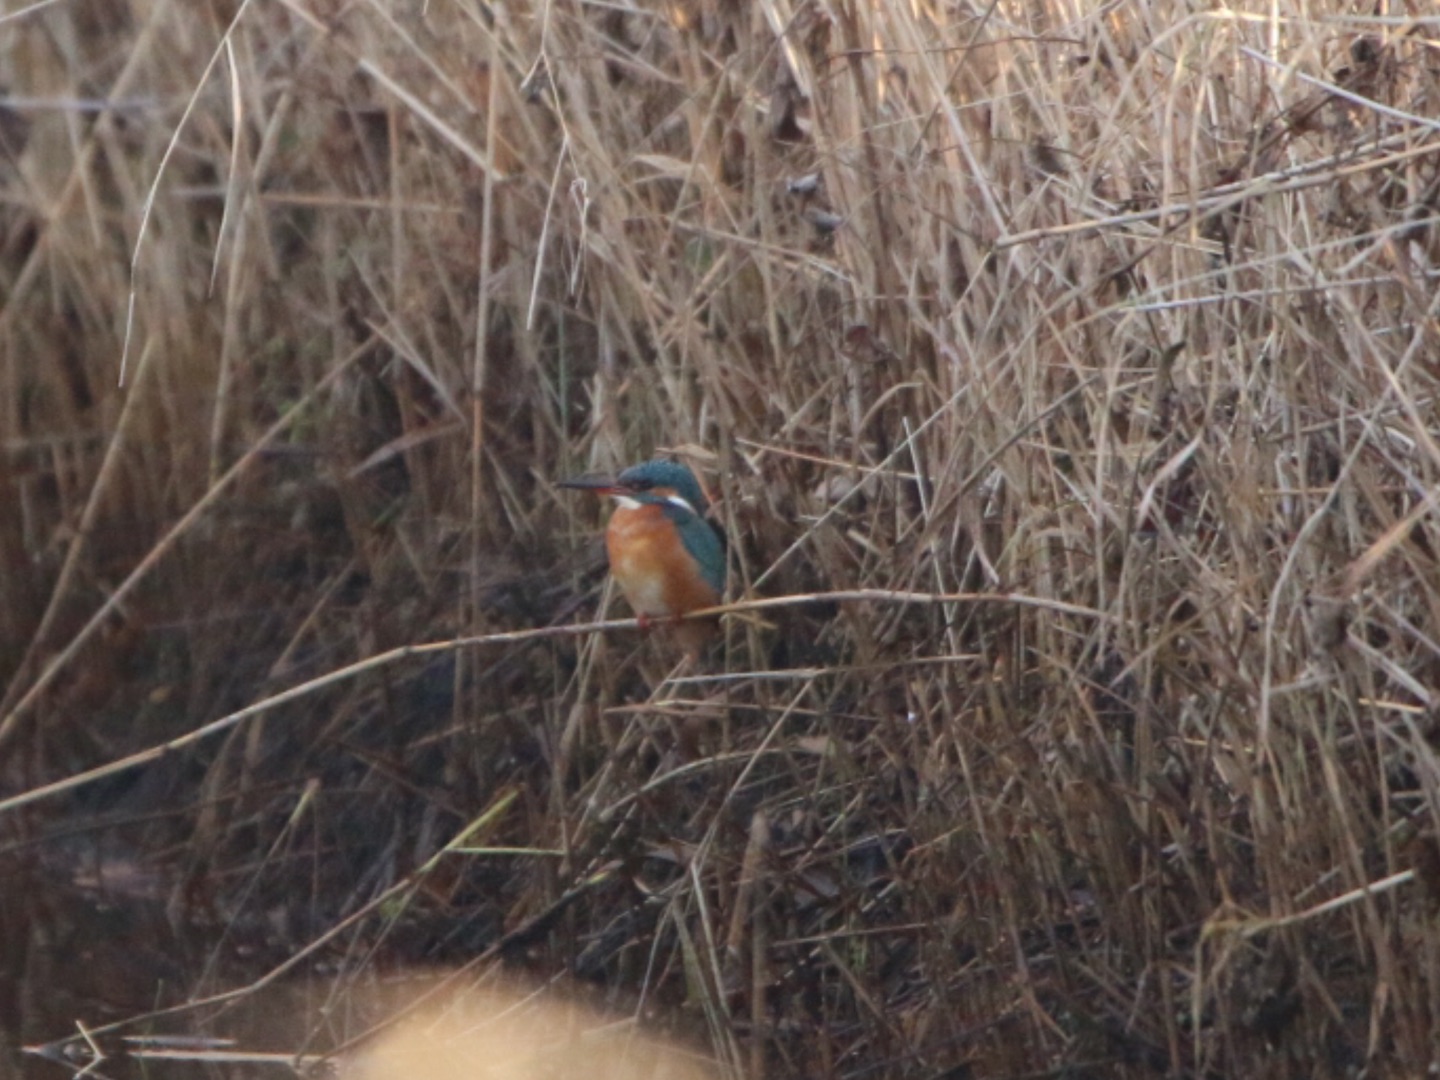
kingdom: Animalia
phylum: Chordata
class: Aves
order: Coraciiformes
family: Alcedinidae
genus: Alcedo
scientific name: Alcedo atthis
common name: Isfugl
